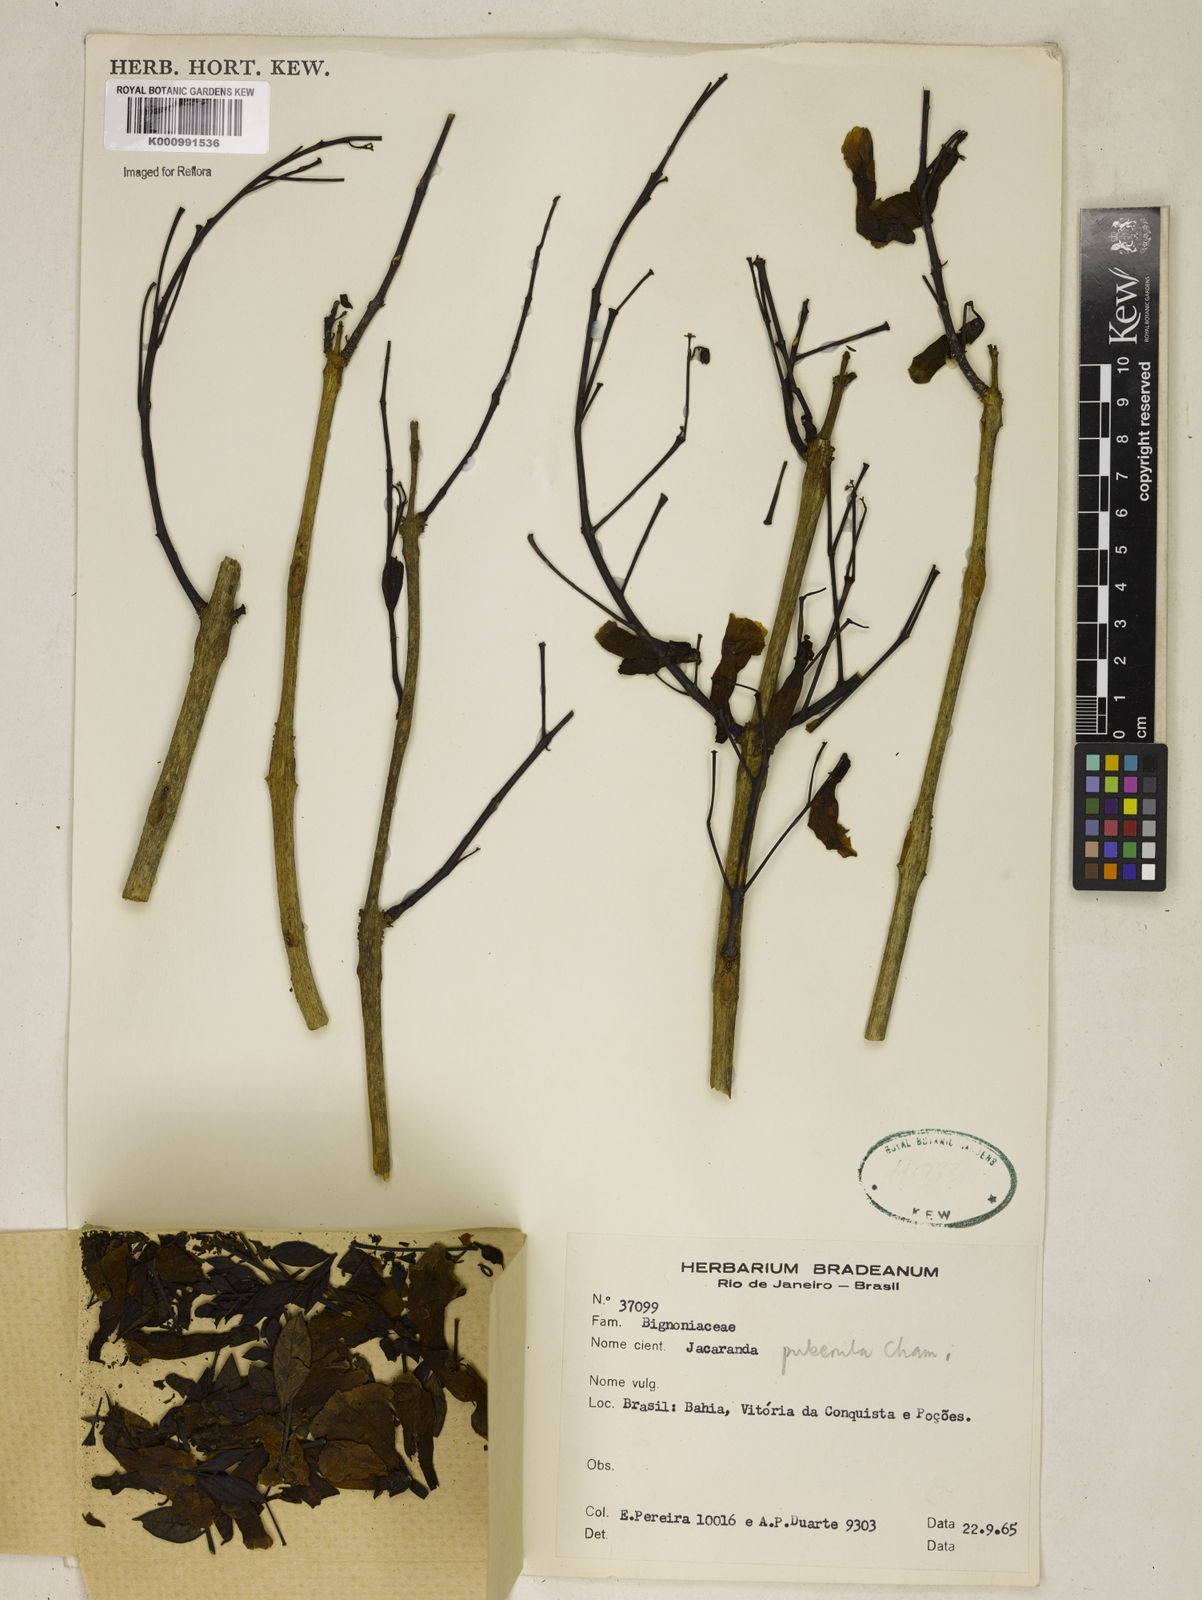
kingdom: Plantae
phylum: Tracheophyta
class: Magnoliopsida
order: Lamiales
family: Bignoniaceae
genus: Jacaranda
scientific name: Jacaranda puberula
